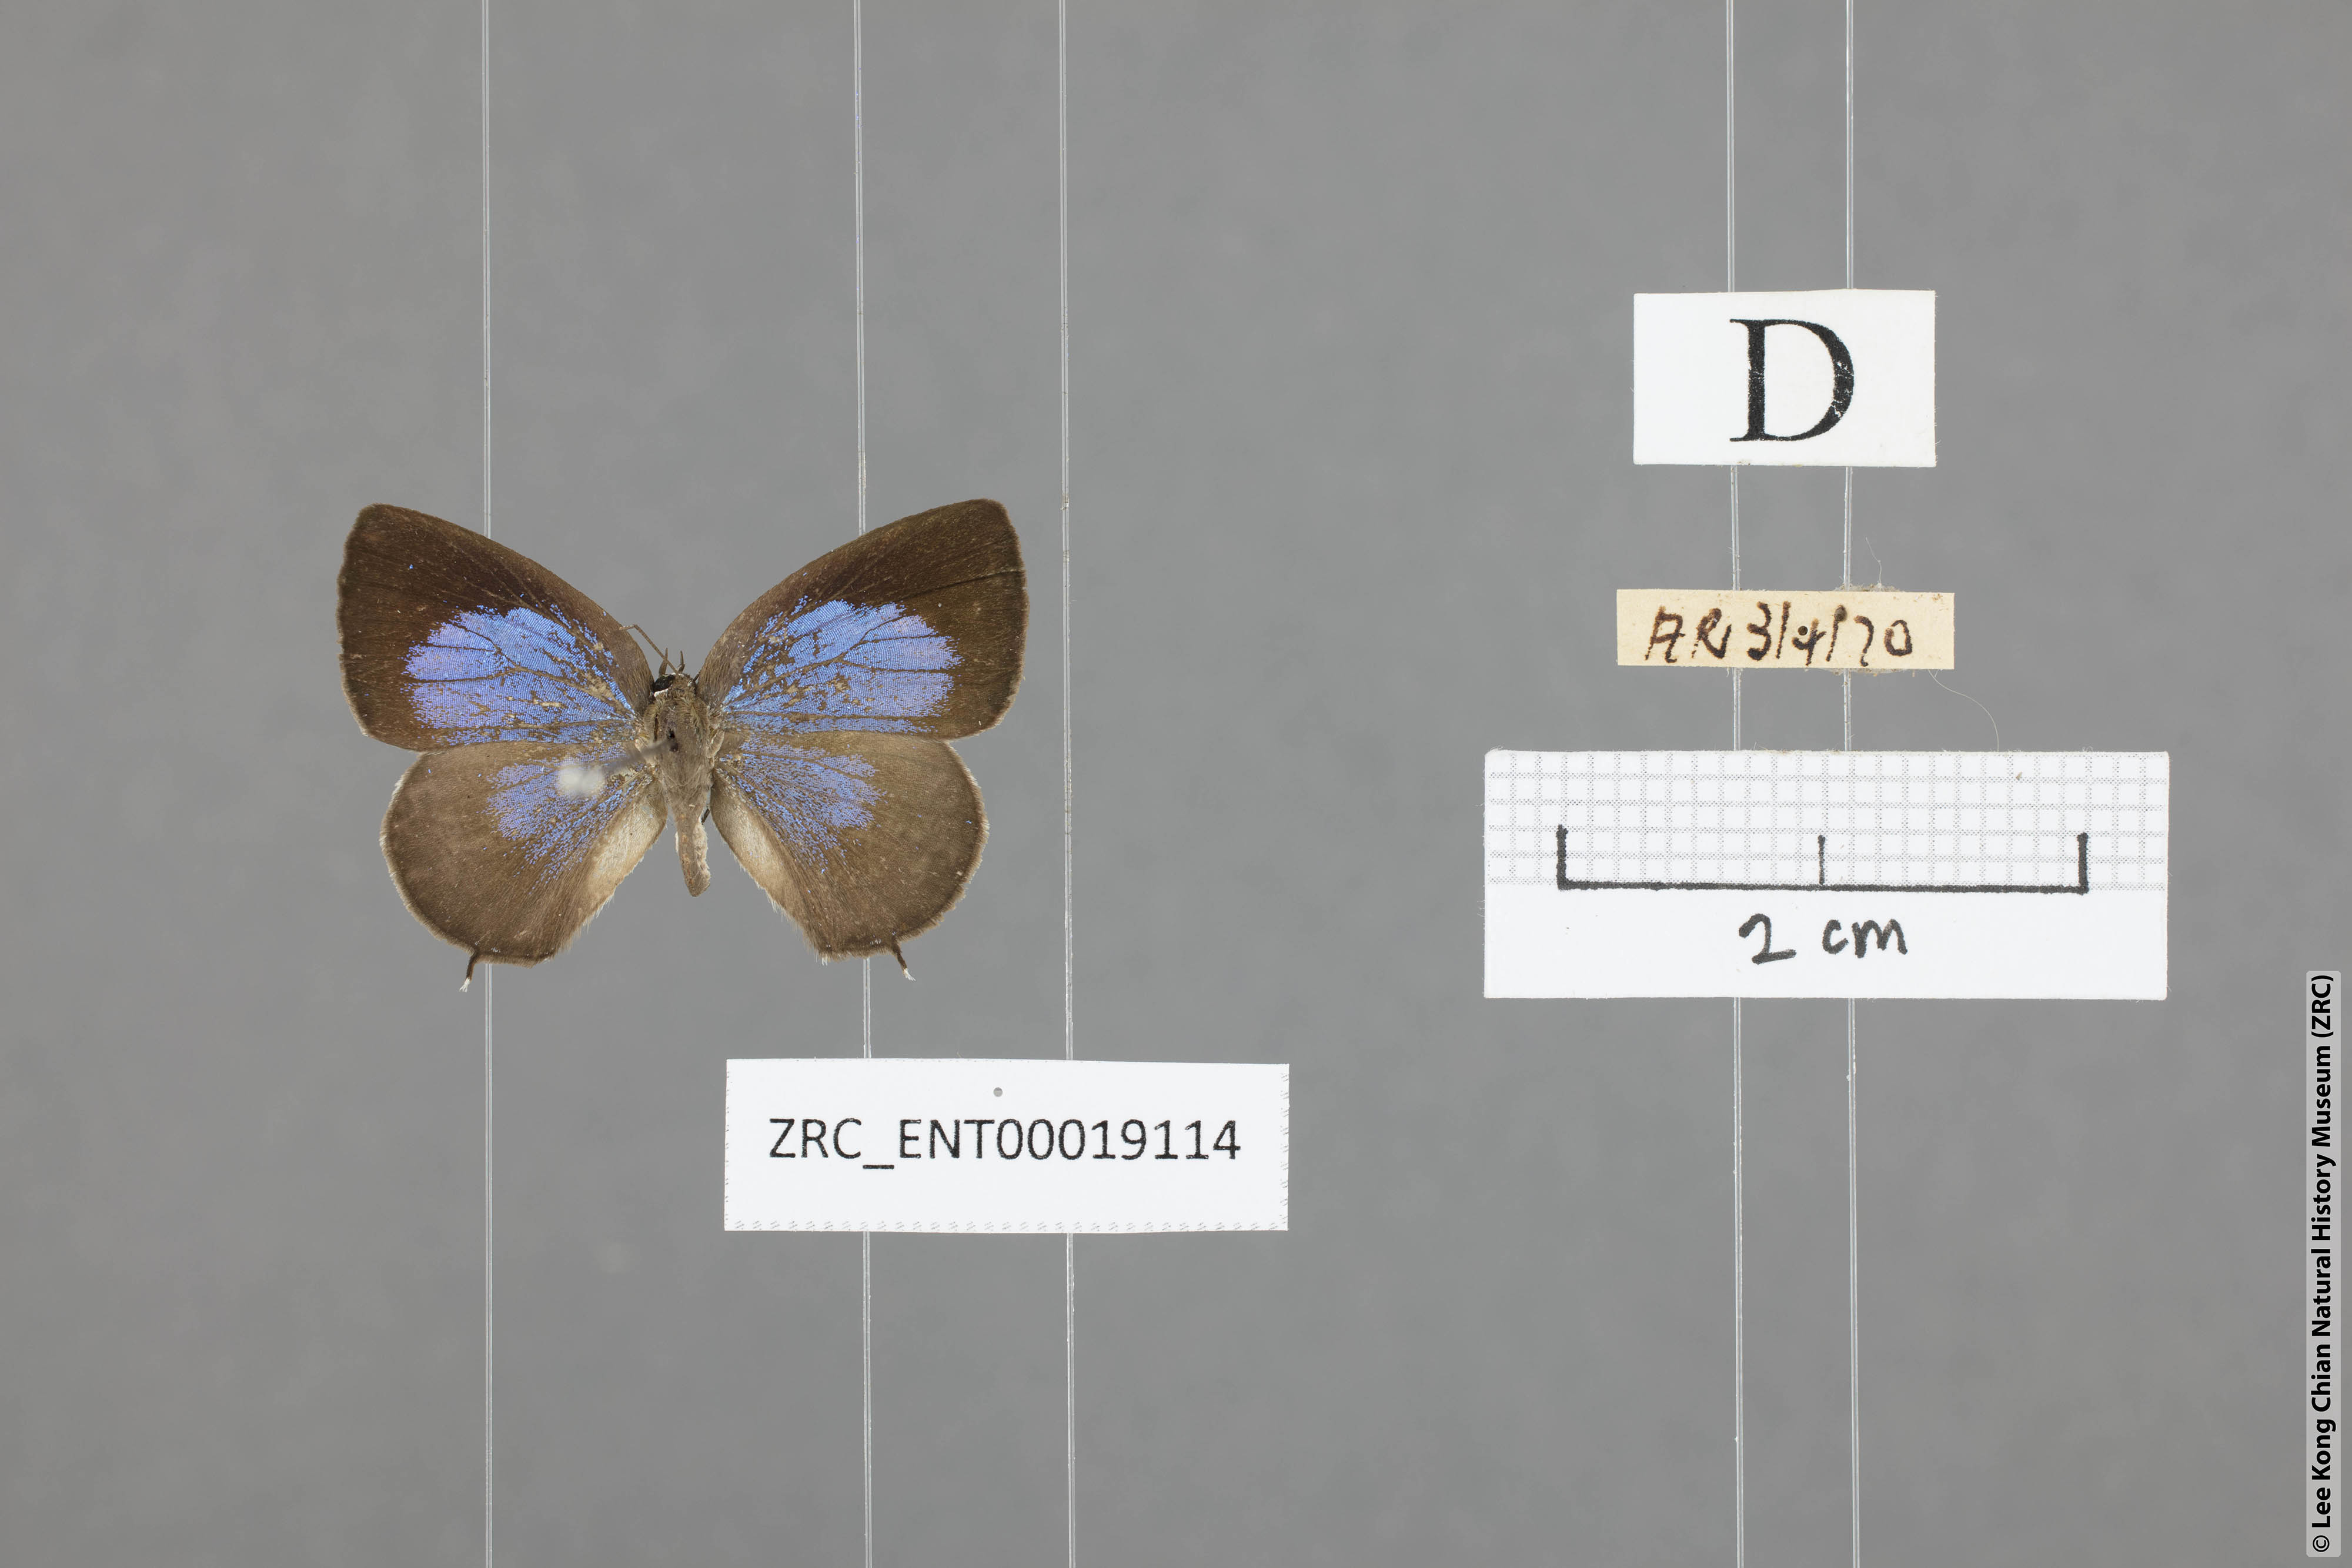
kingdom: Animalia
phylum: Arthropoda
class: Insecta
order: Lepidoptera
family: Lycaenidae
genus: Arhopala
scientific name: Arhopala ammonides
